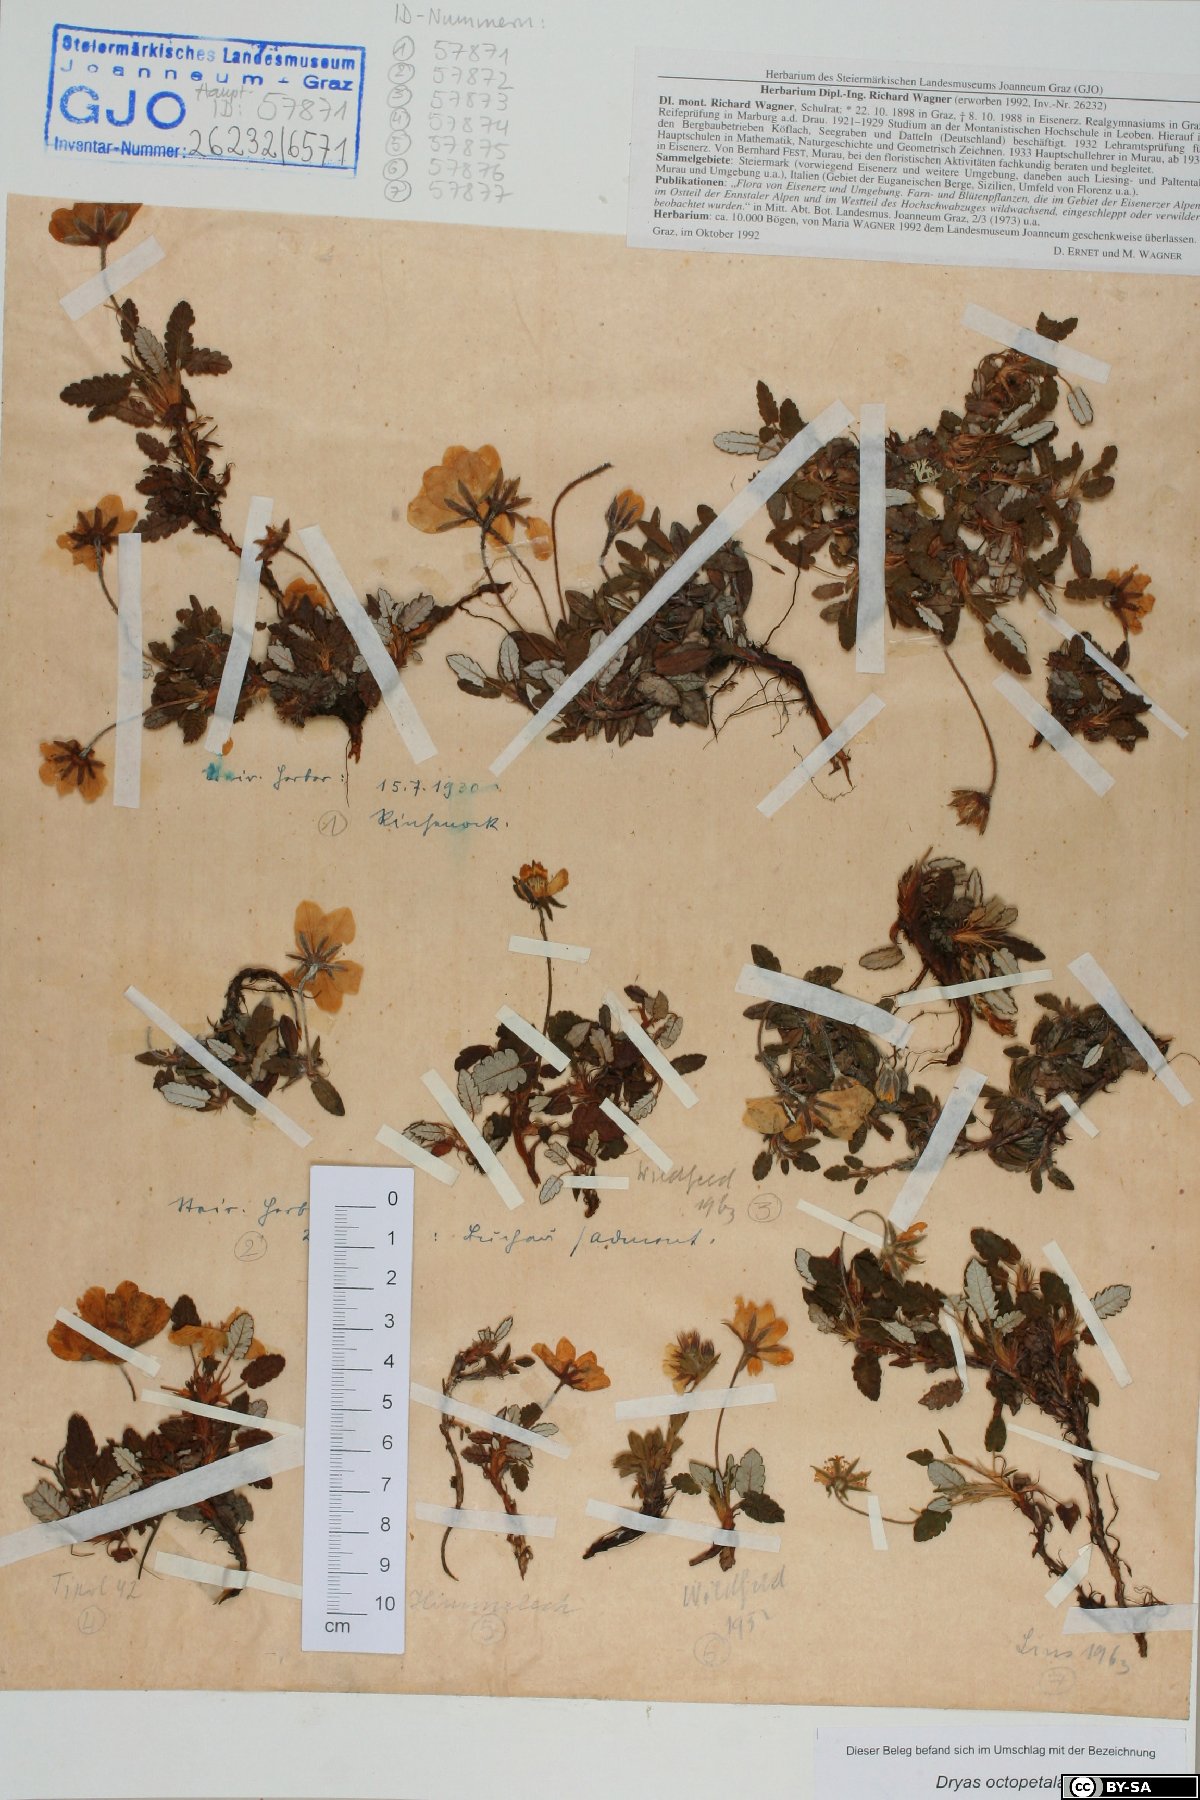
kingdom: Plantae
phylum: Tracheophyta
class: Magnoliopsida
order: Rosales
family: Rosaceae
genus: Dryas
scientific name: Dryas octopetala
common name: Eight-petal mountain-avens
